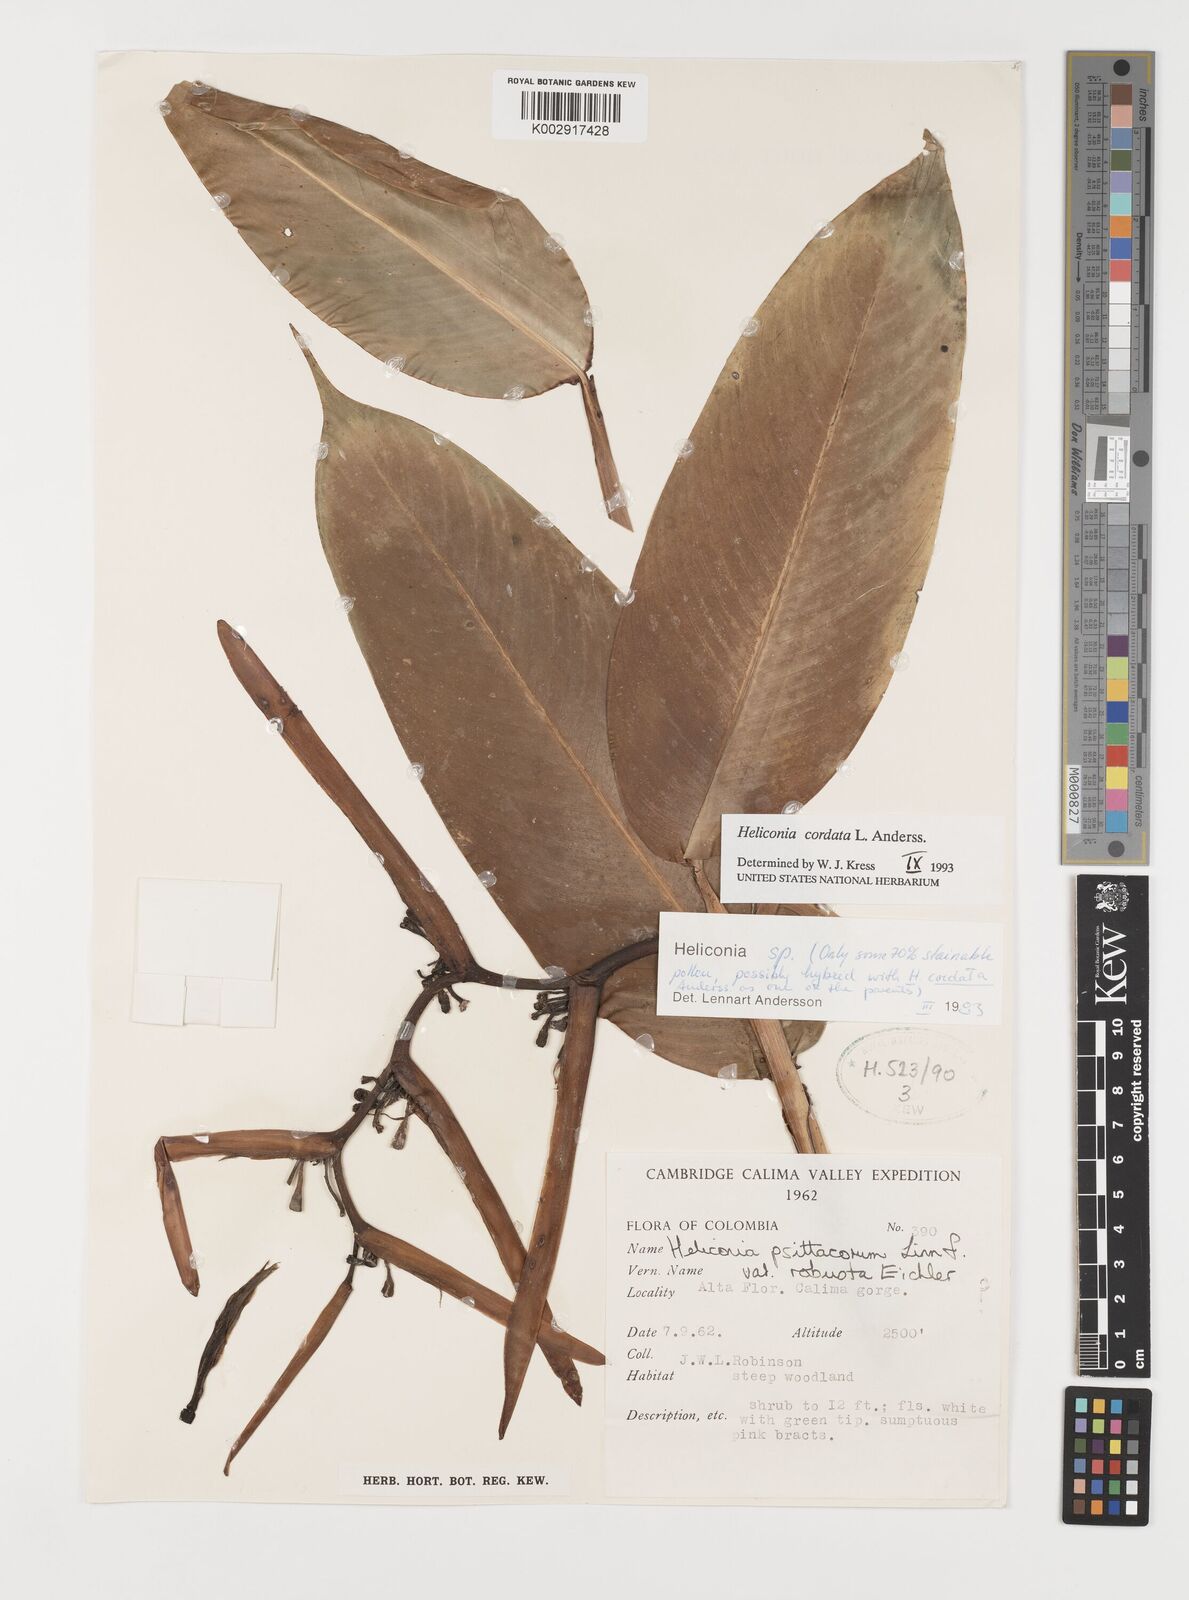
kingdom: Plantae
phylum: Tracheophyta
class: Liliopsida
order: Zingiberales
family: Heliconiaceae
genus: Heliconia
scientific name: Heliconia cordata
